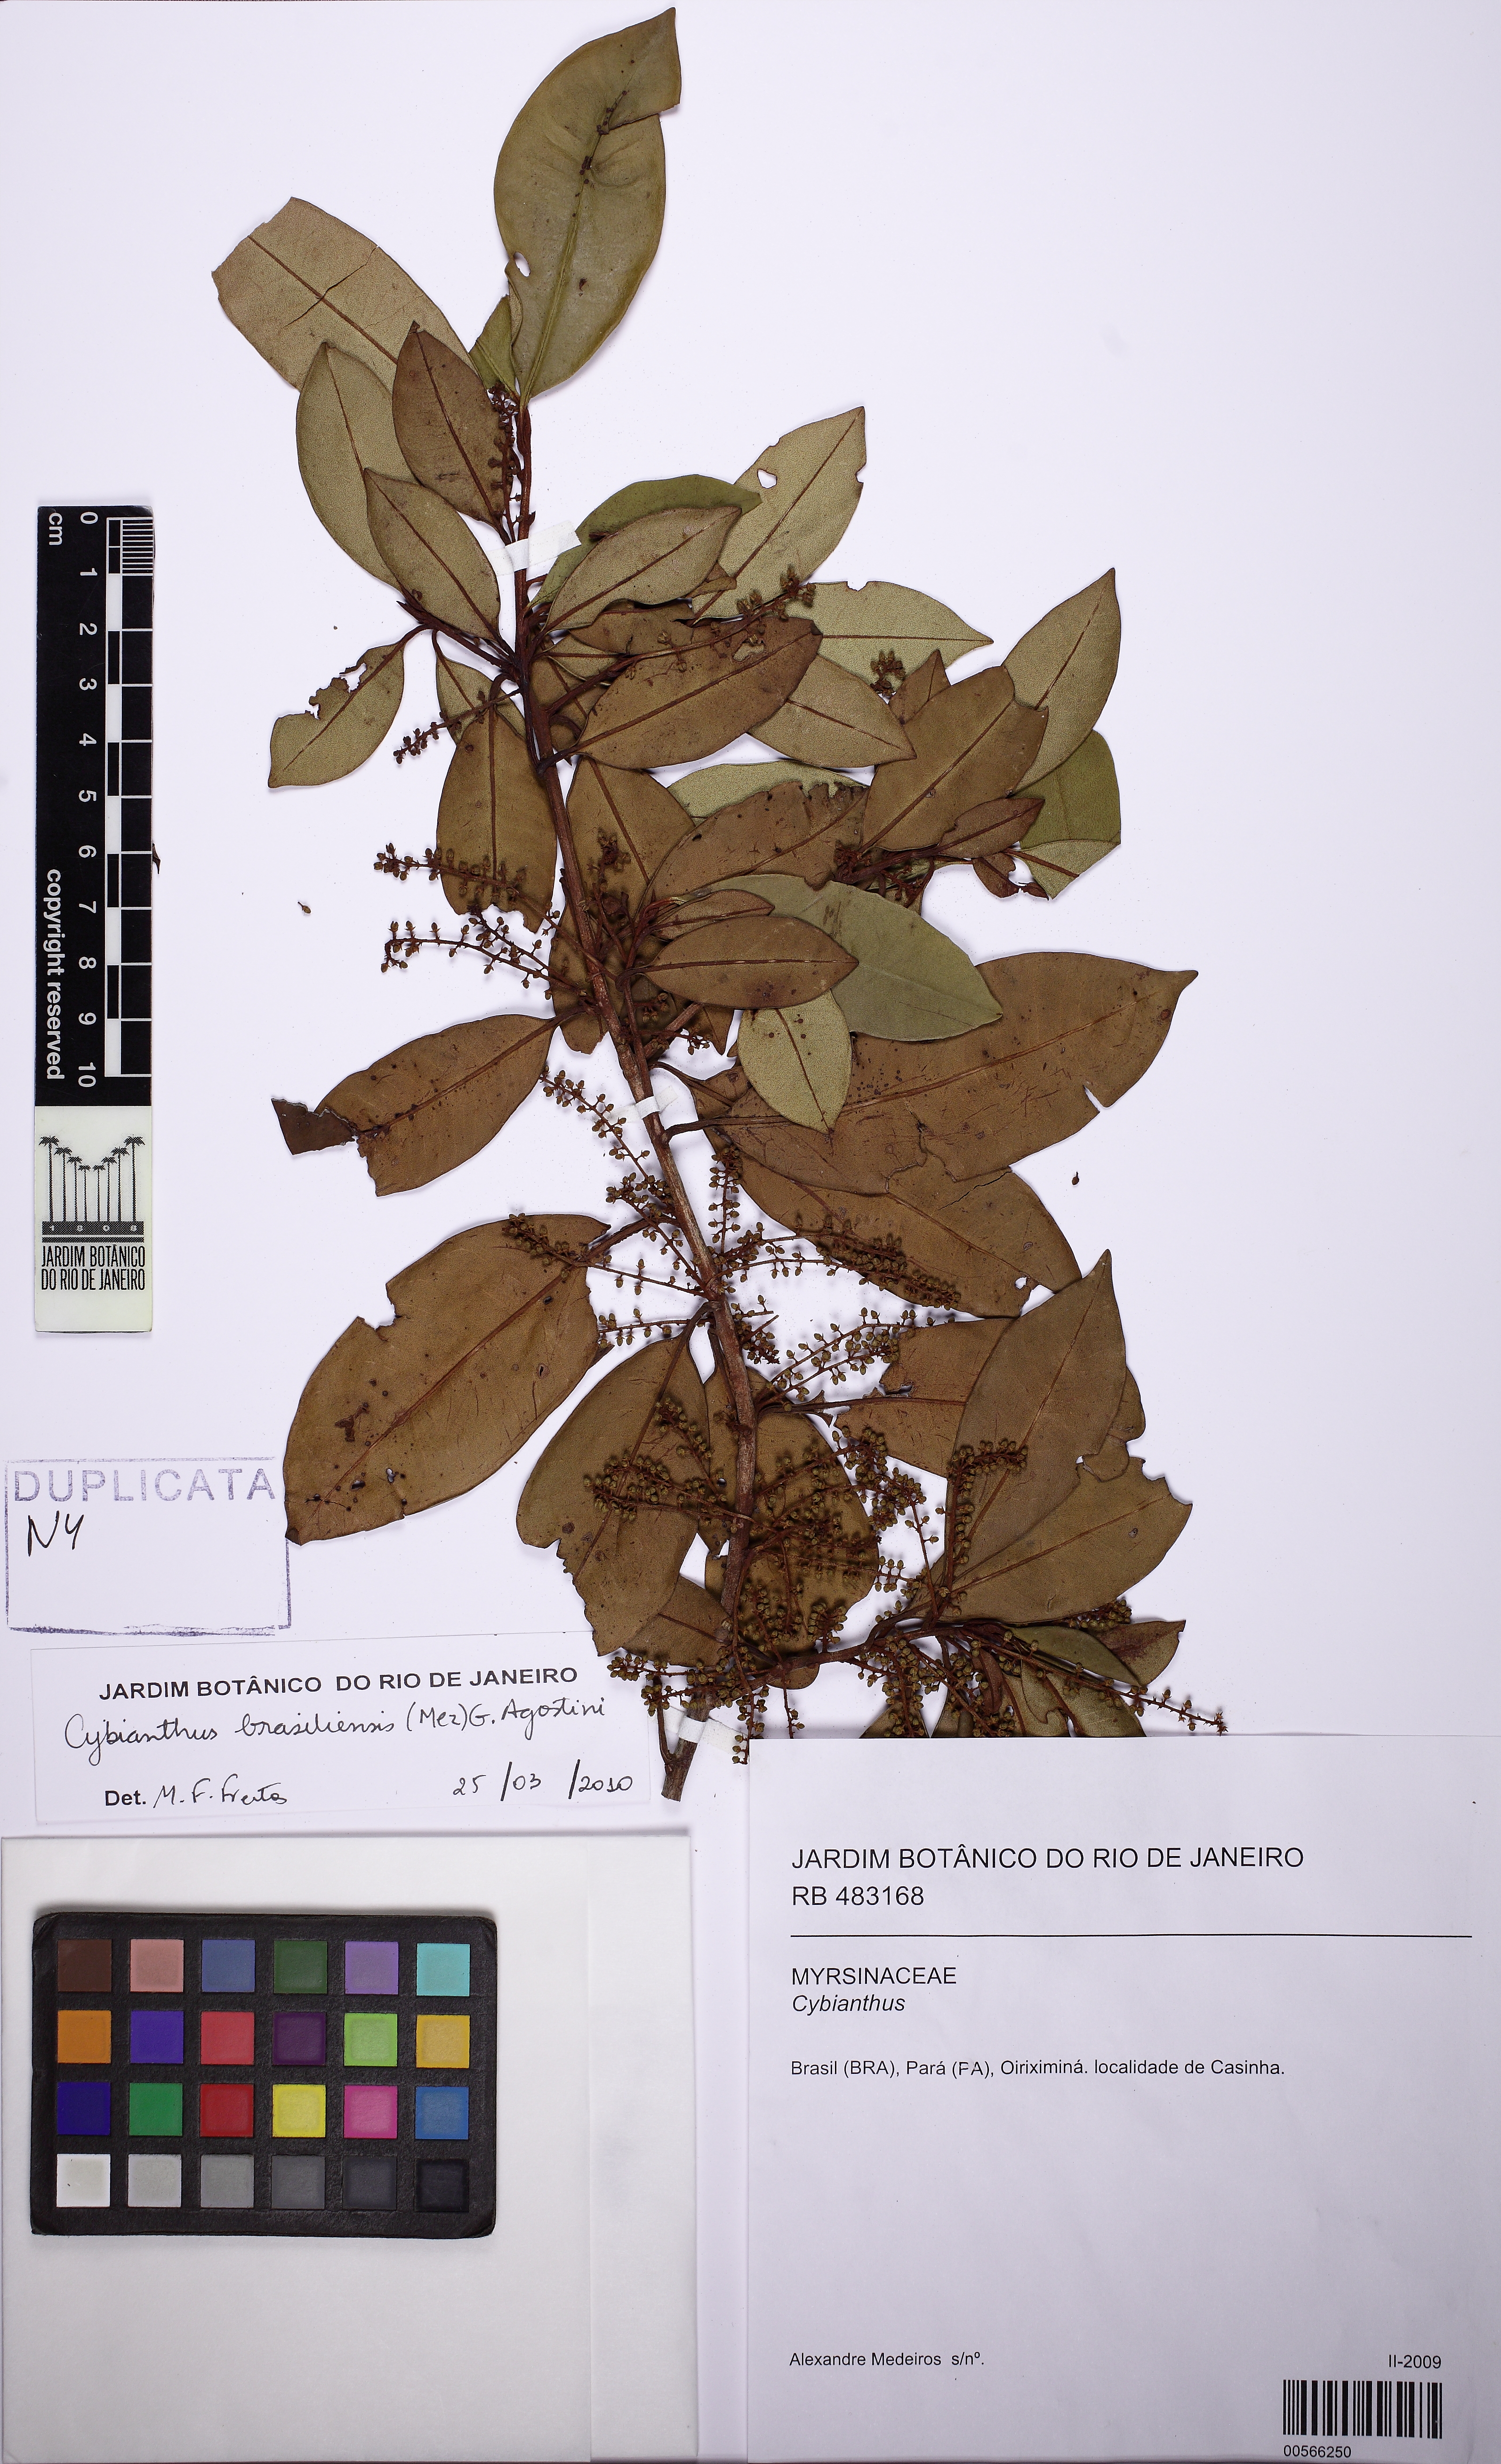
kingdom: Plantae
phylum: Tracheophyta
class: Magnoliopsida
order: Ericales
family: Primulaceae
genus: Cybianthus
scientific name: Cybianthus peruvianus
